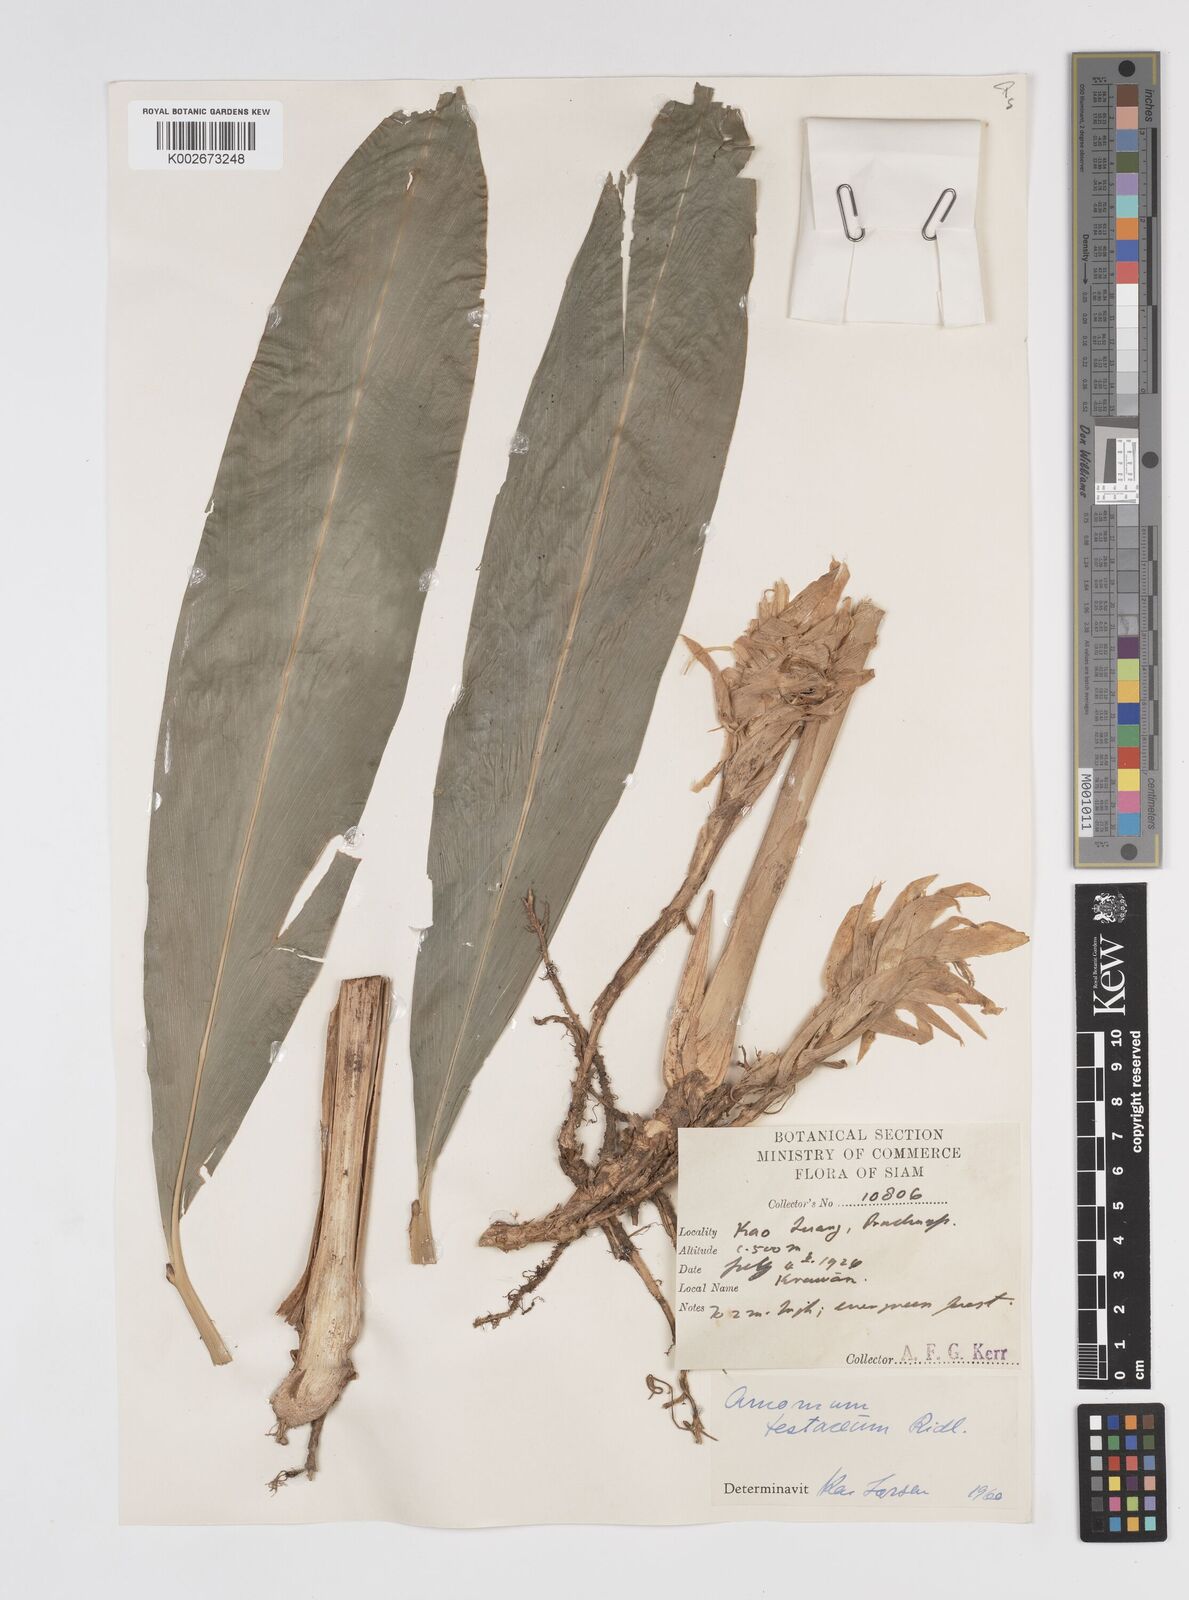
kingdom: Plantae
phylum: Tracheophyta
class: Liliopsida
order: Zingiberales
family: Zingiberaceae
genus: Wurfbainia
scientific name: Wurfbainia testacea
